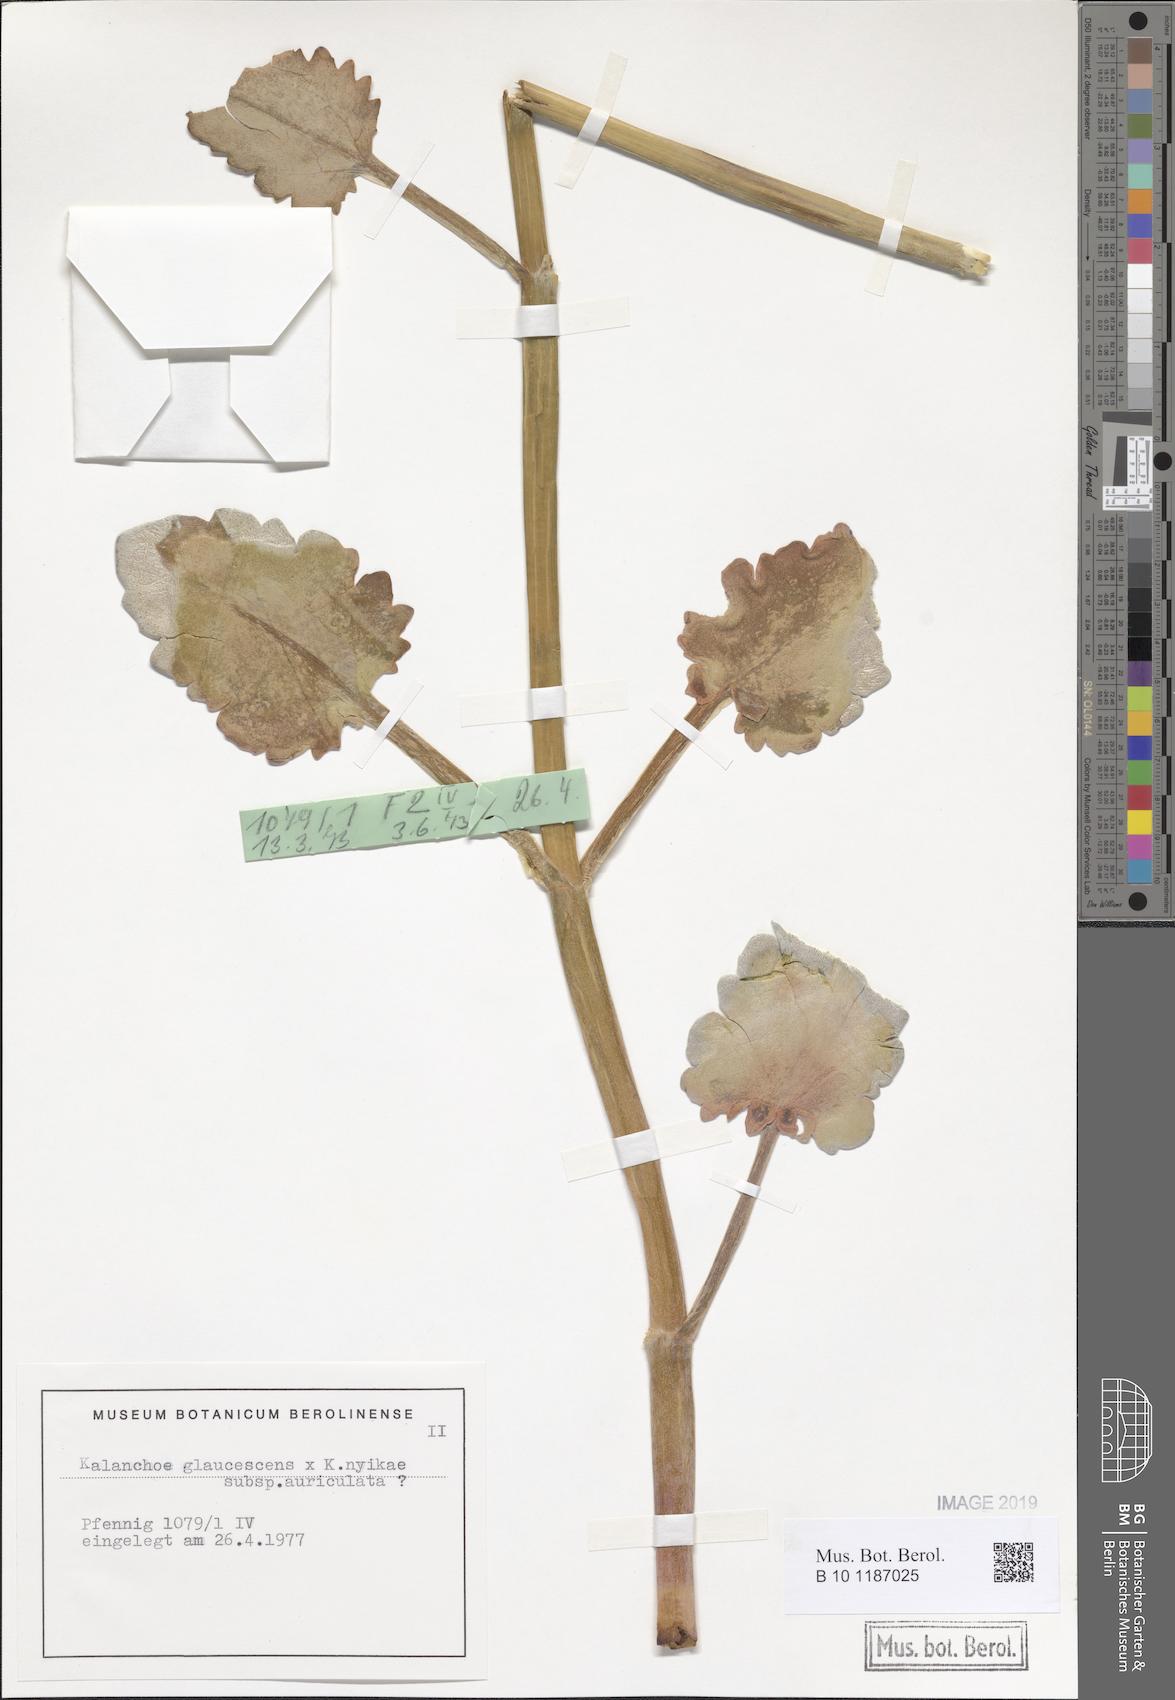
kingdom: Plantae
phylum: Tracheophyta
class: Magnoliopsida
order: Saxifragales
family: Crassulaceae
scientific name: Crassulaceae
